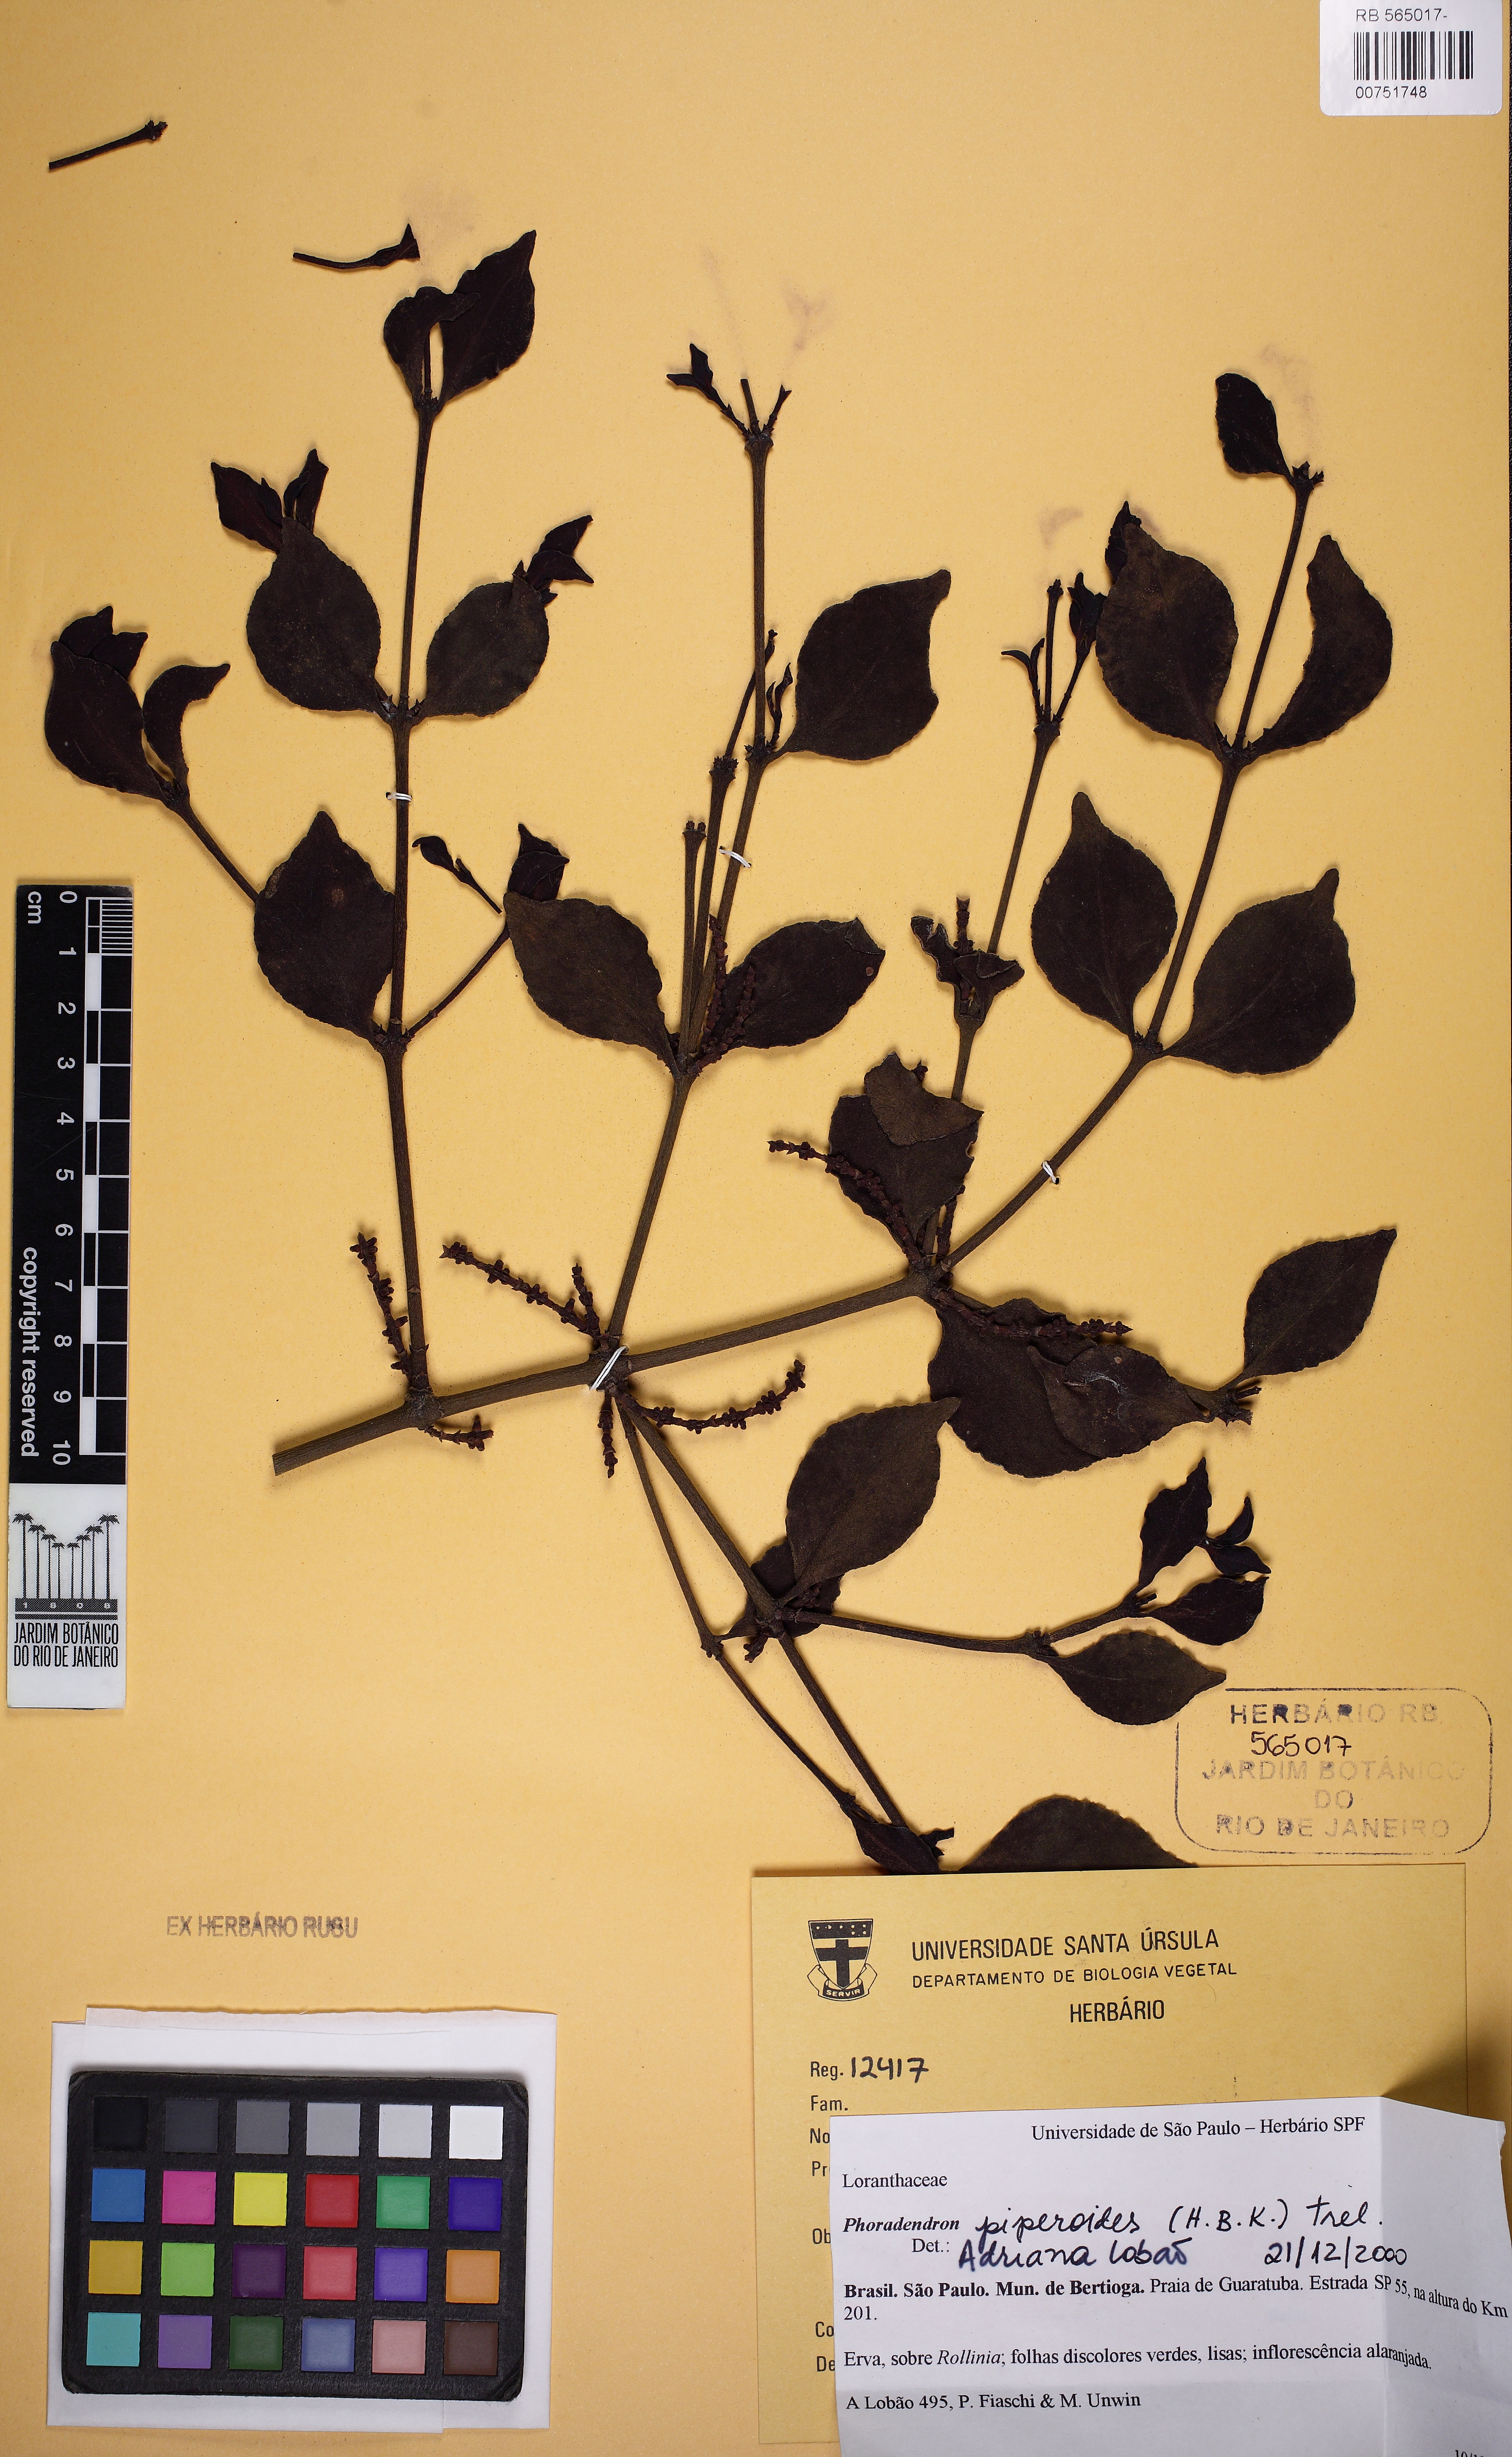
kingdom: Plantae
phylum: Tracheophyta
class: Magnoliopsida
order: Santalales
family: Viscaceae
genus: Phoradendron
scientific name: Phoradendron piperoides
